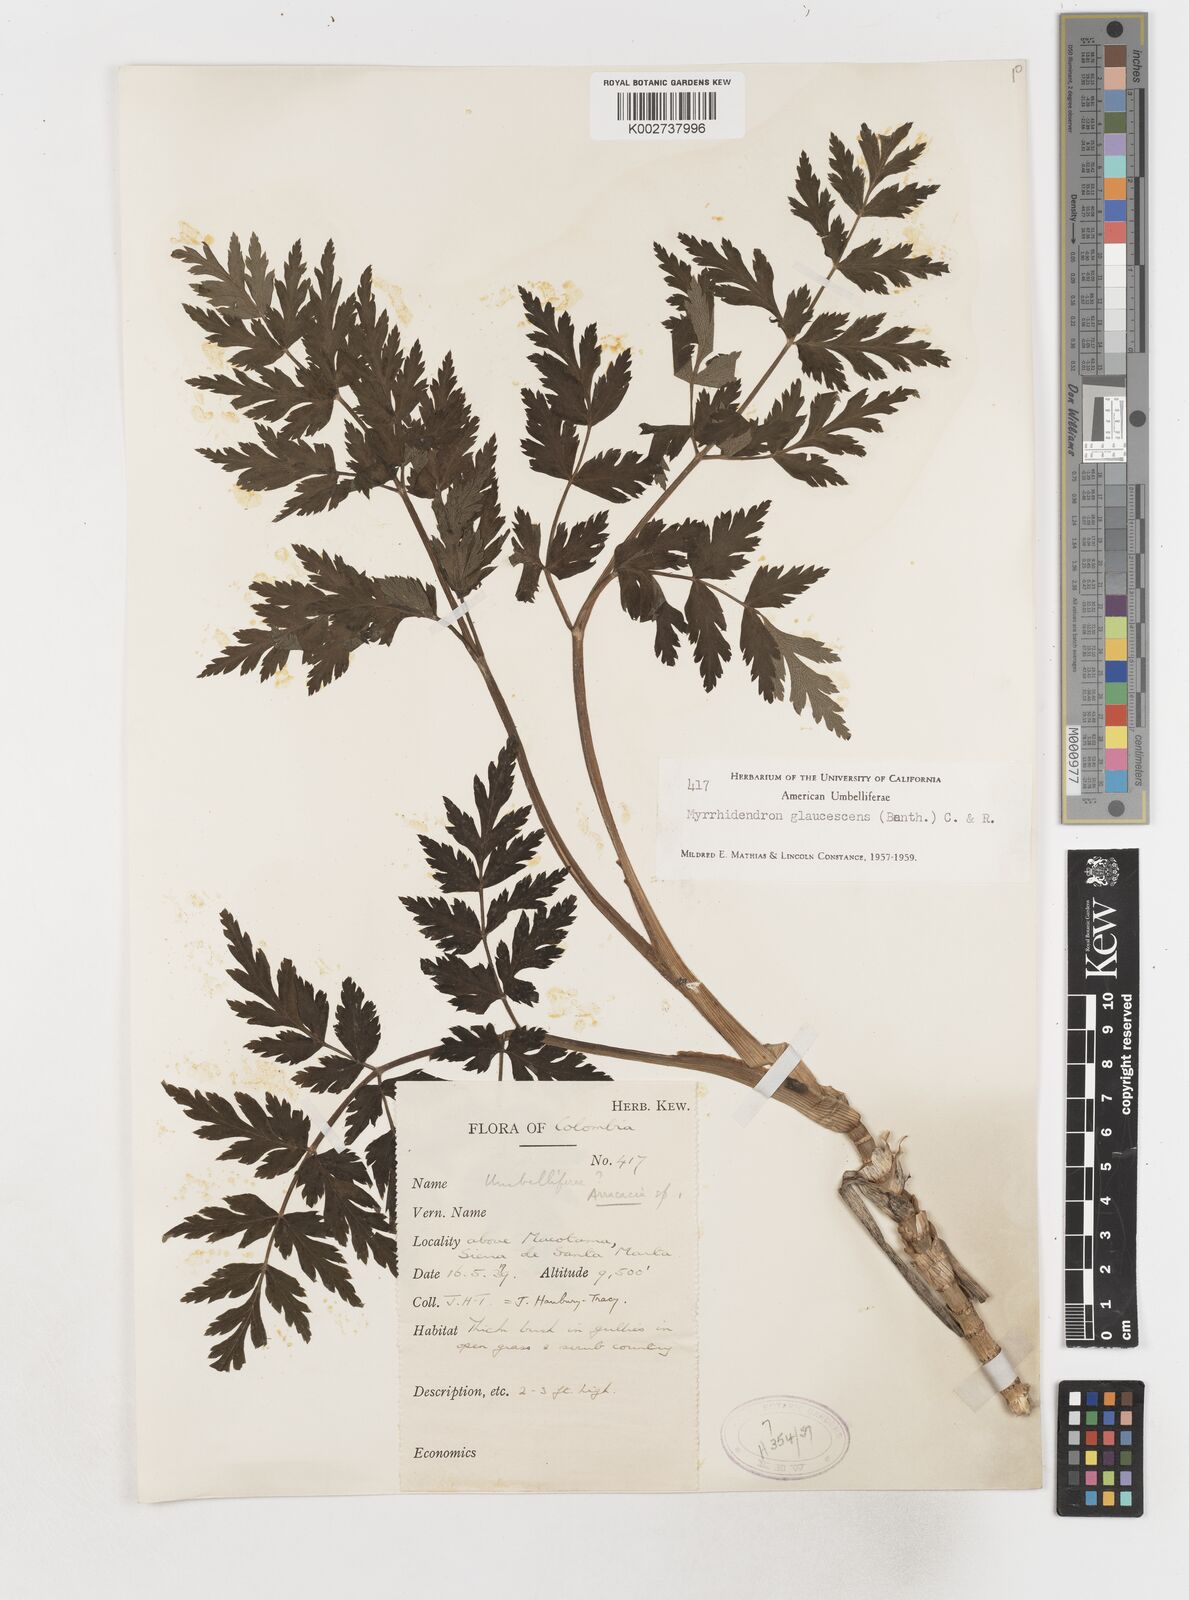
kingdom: Plantae
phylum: Tracheophyta
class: Magnoliopsida
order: Apiales
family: Apiaceae
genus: Myrrhidendron
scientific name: Myrrhidendron glaucescens
